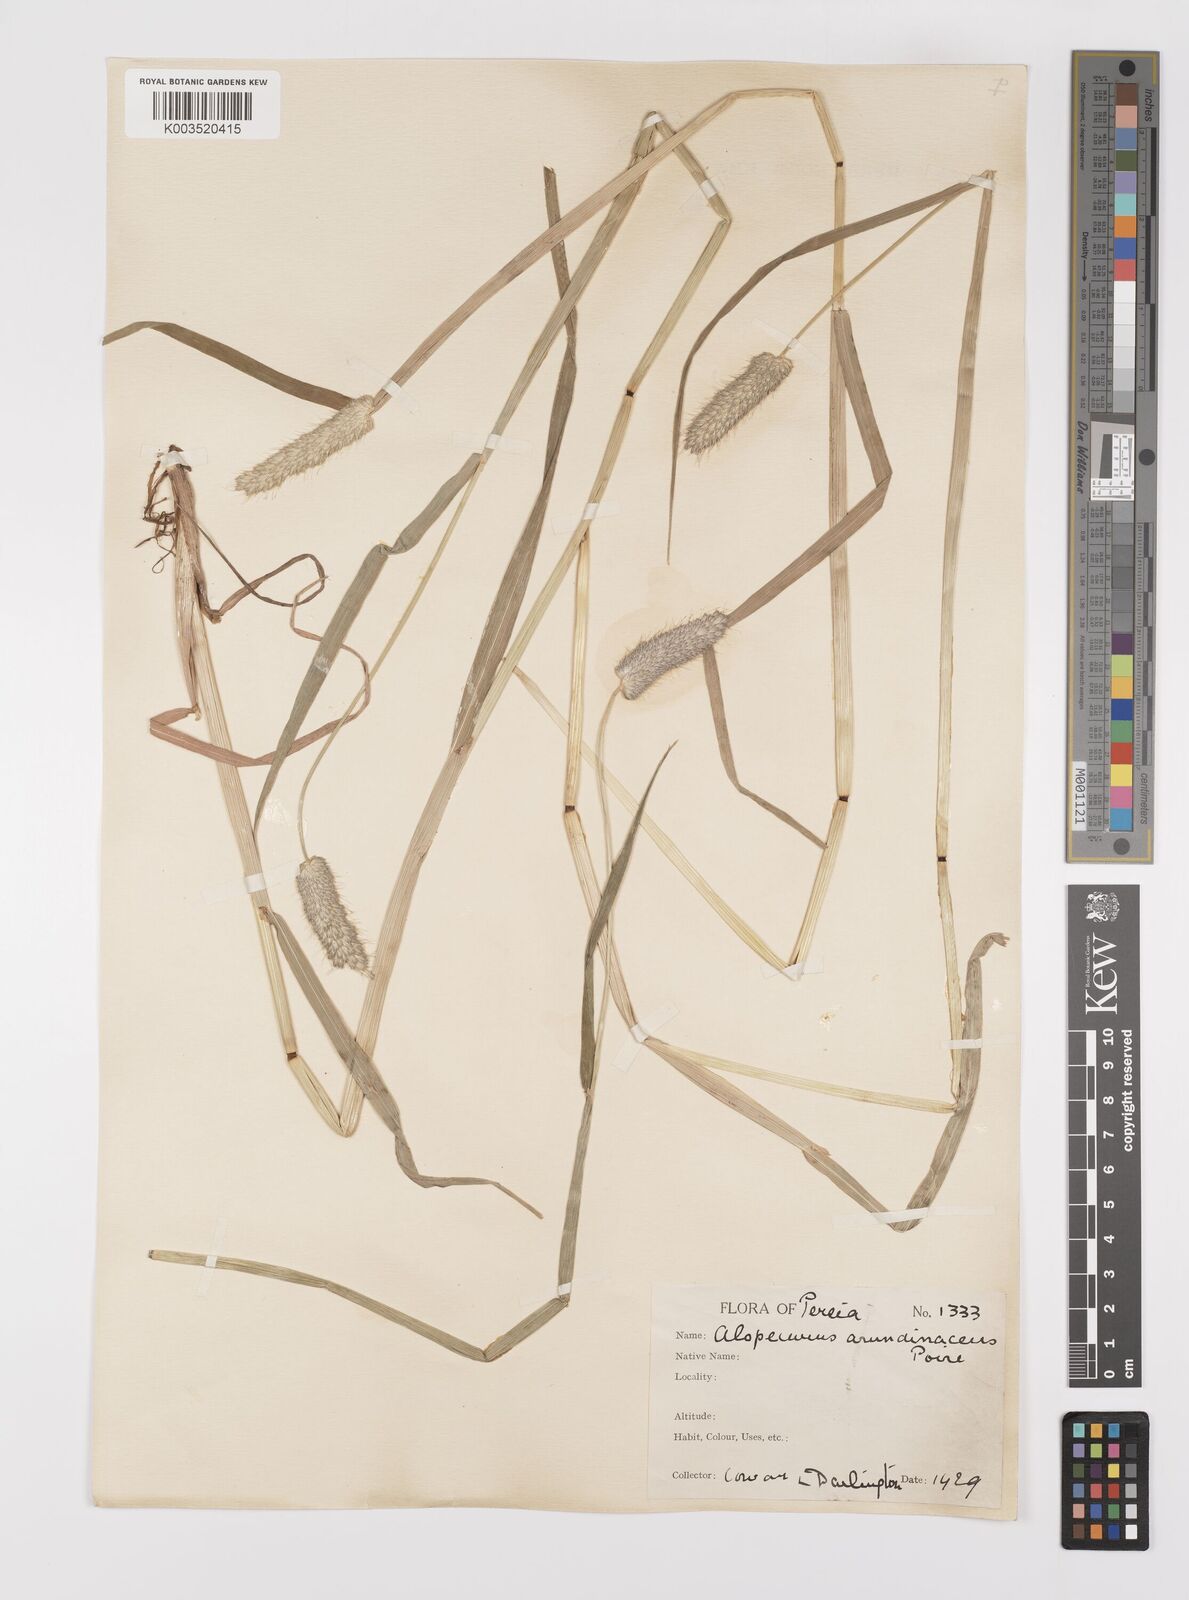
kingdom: Plantae
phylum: Tracheophyta
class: Liliopsida
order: Poales
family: Poaceae
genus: Alopecurus
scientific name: Alopecurus arundinaceus
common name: Creeping meadow foxtail
